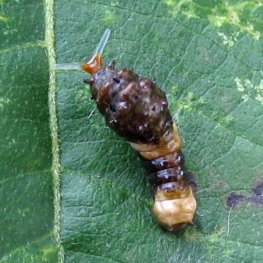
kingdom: Animalia
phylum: Arthropoda
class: Insecta
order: Lepidoptera
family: Papilionidae
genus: Papilio
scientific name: Papilio cresphontes
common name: Eastern Giant Swallowtail
